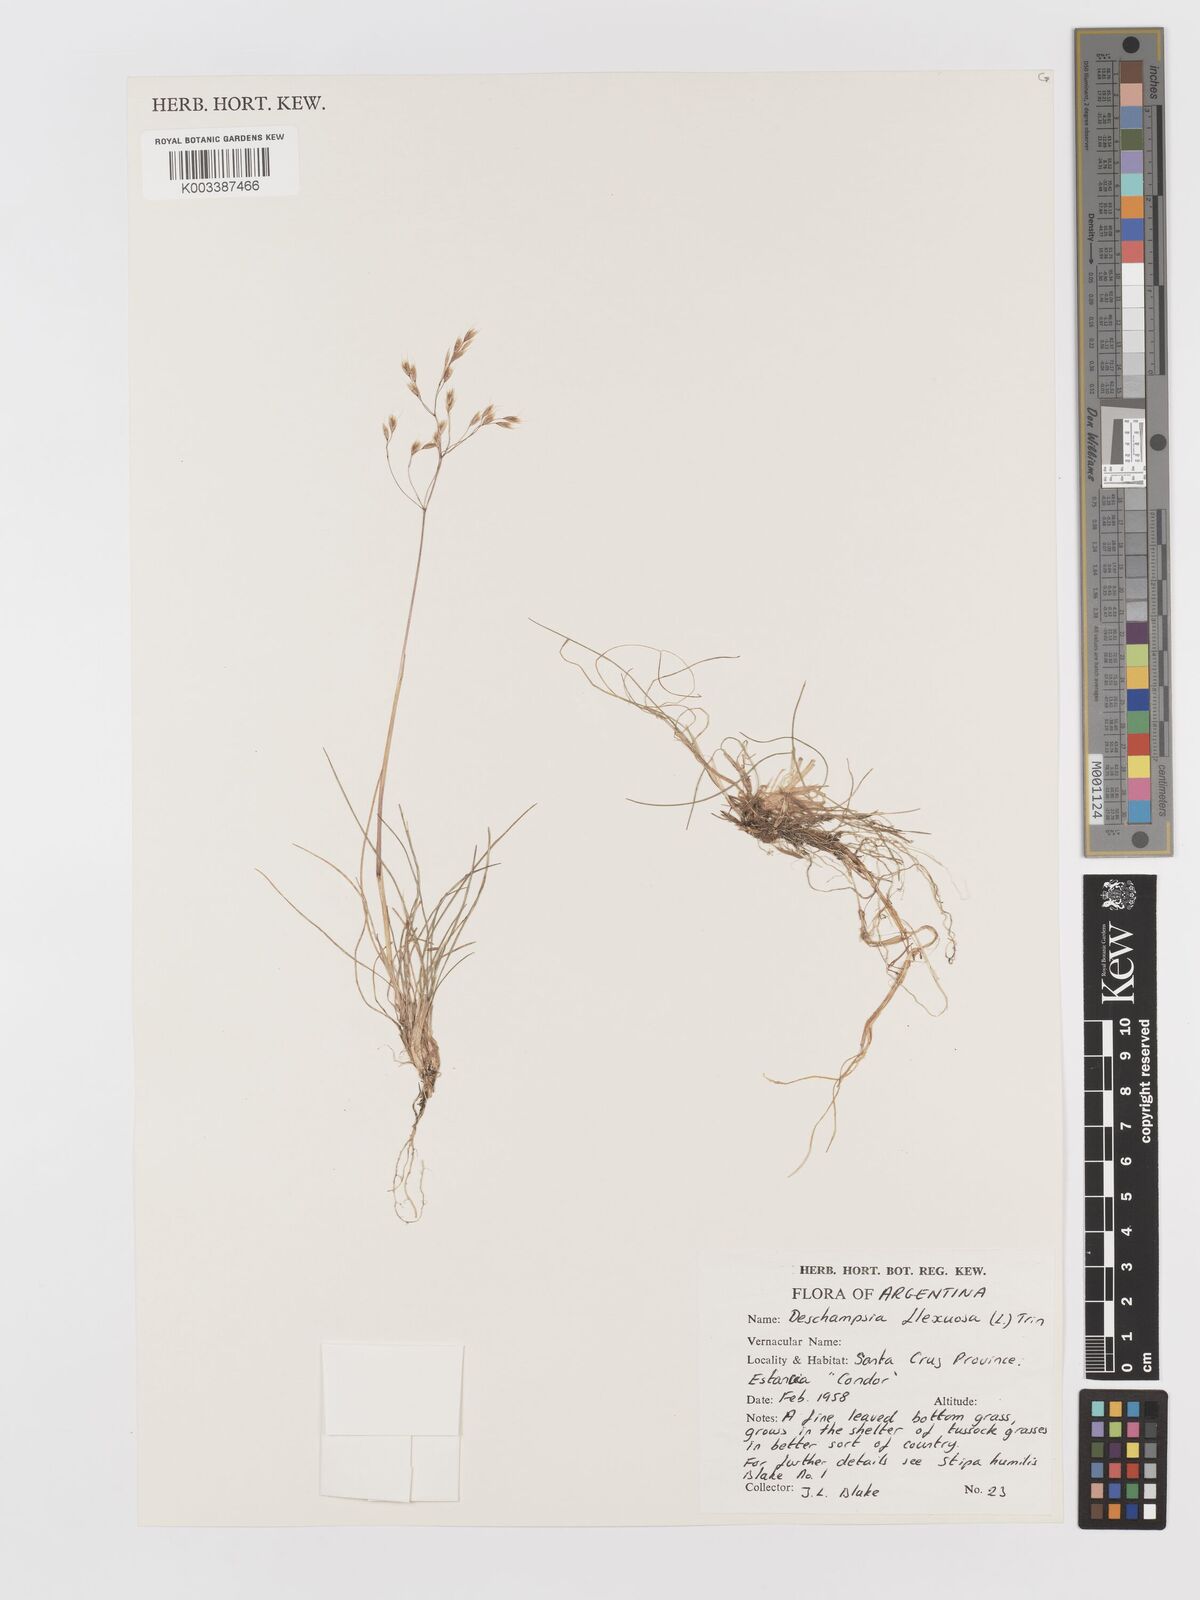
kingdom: Plantae
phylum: Tracheophyta
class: Liliopsida
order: Poales
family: Poaceae
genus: Avenella
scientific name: Avenella flexuosa
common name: Wavy hairgrass
